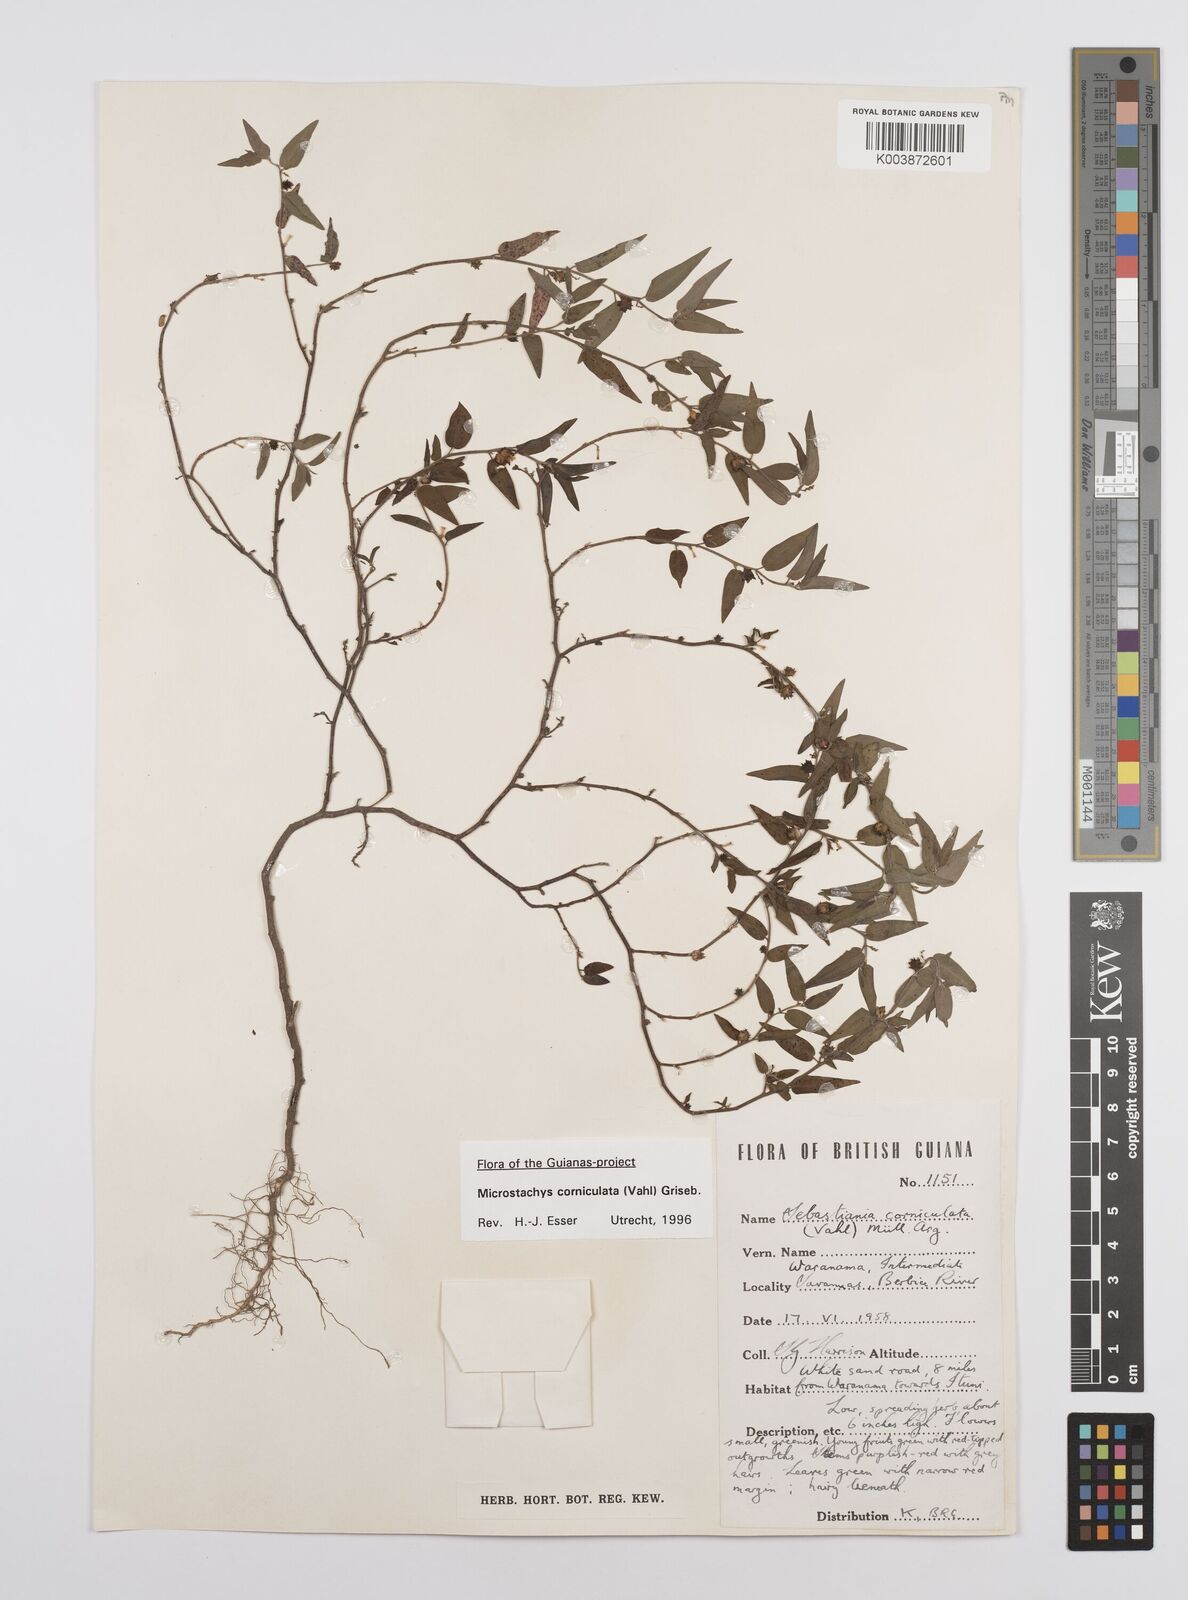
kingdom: Plantae
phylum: Tracheophyta
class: Magnoliopsida
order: Malpighiales
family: Euphorbiaceae
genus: Microstachys
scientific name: Microstachys corniculata
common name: Hato tejas
